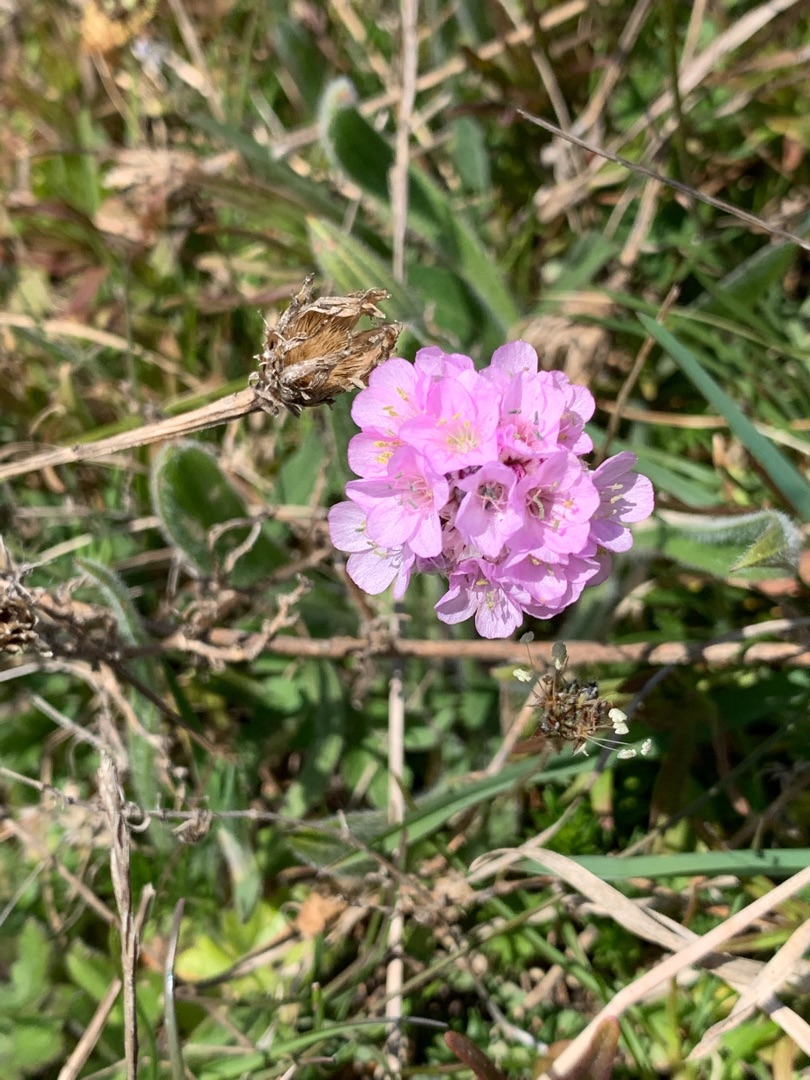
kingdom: Plantae
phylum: Tracheophyta
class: Magnoliopsida
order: Caryophyllales
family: Plumbaginaceae
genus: Armeria
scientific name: Armeria maritima
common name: Engelskgræs
